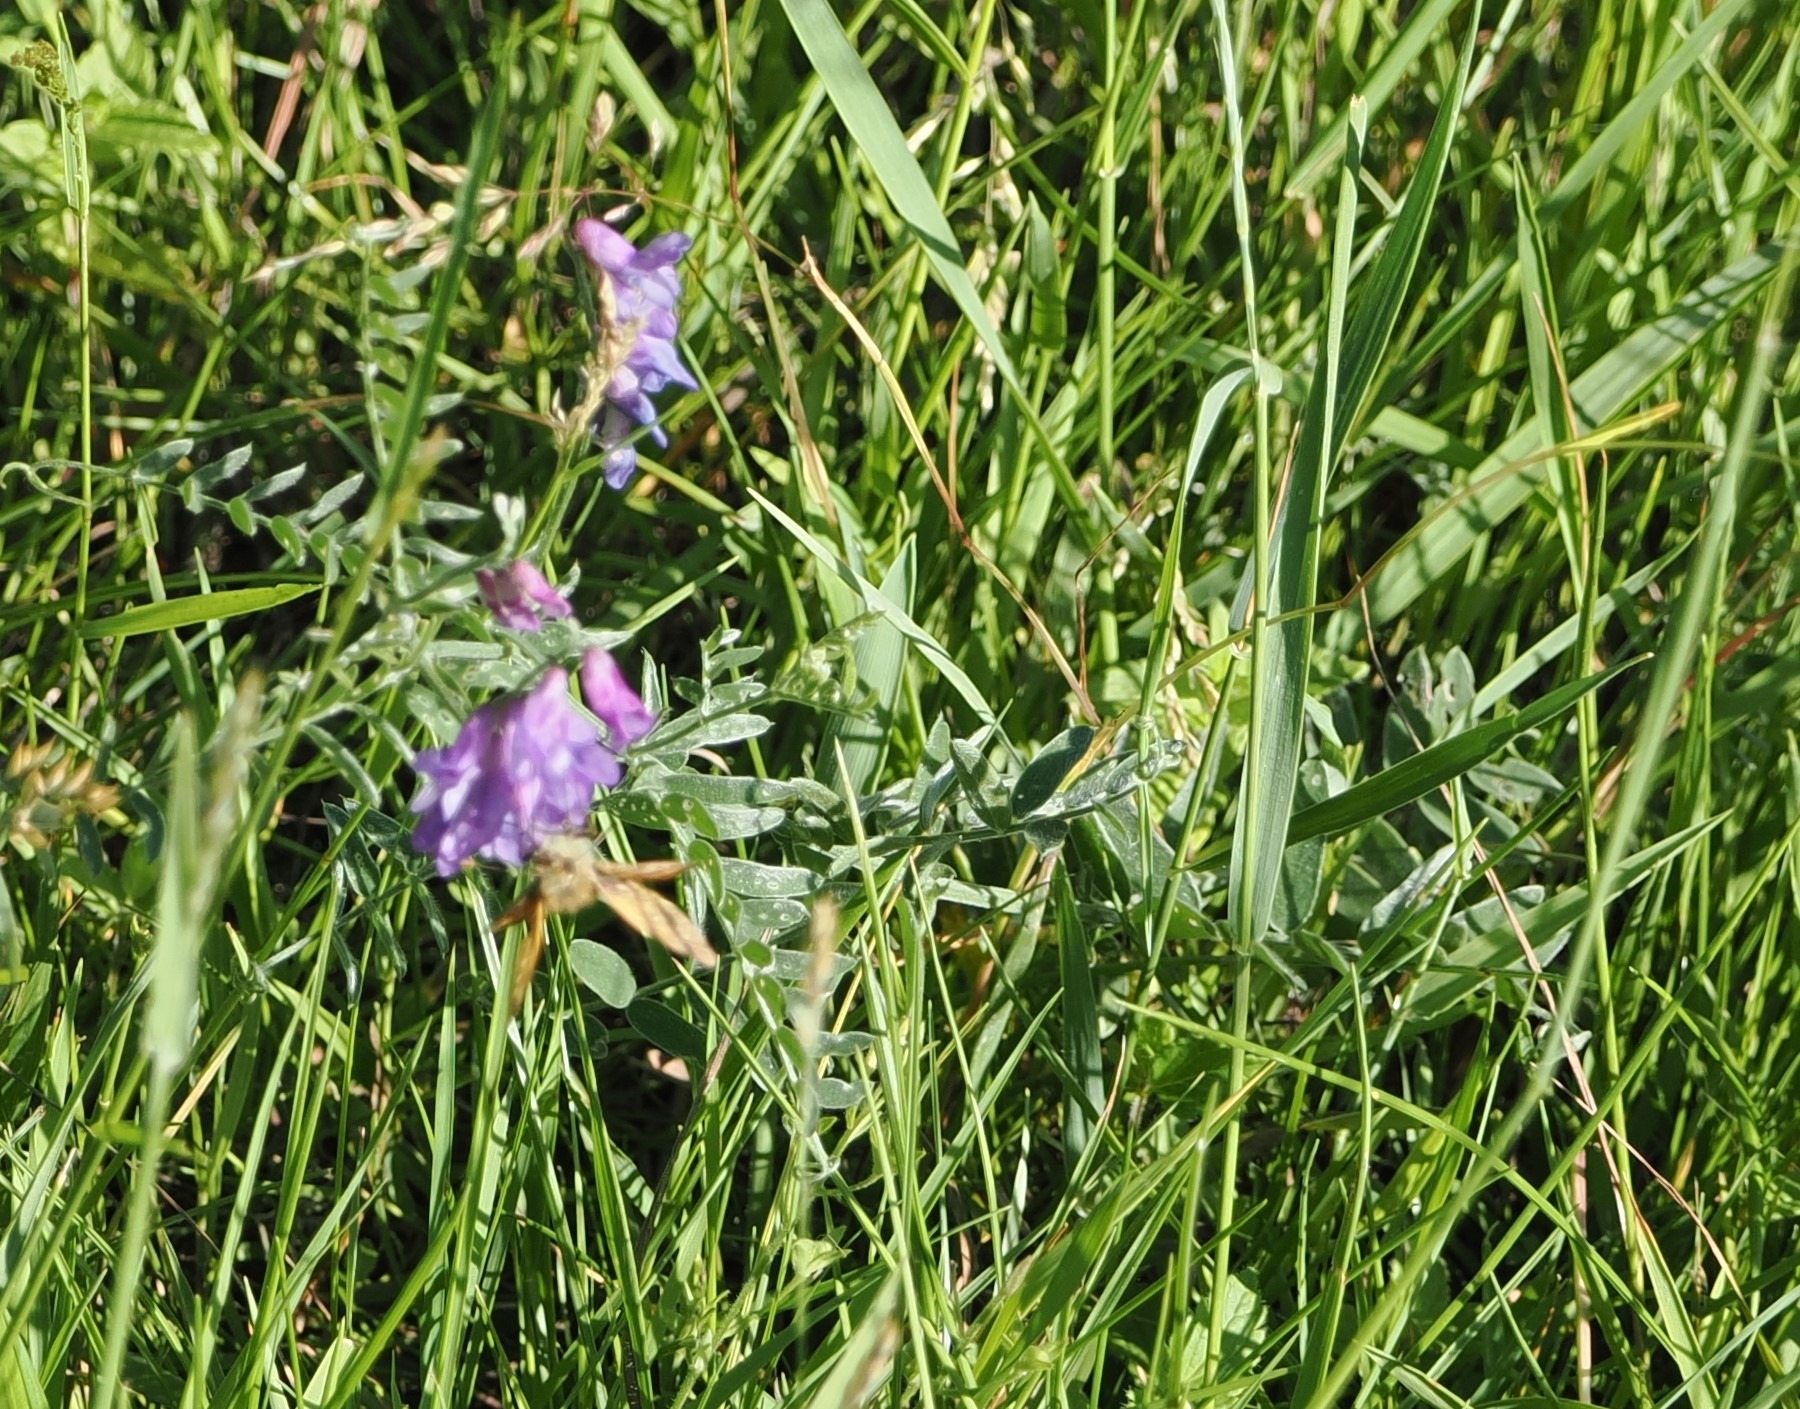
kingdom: Plantae
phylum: Tracheophyta
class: Magnoliopsida
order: Fabales
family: Fabaceae
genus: Vicia
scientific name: Vicia cracca
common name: Muse-vikke
